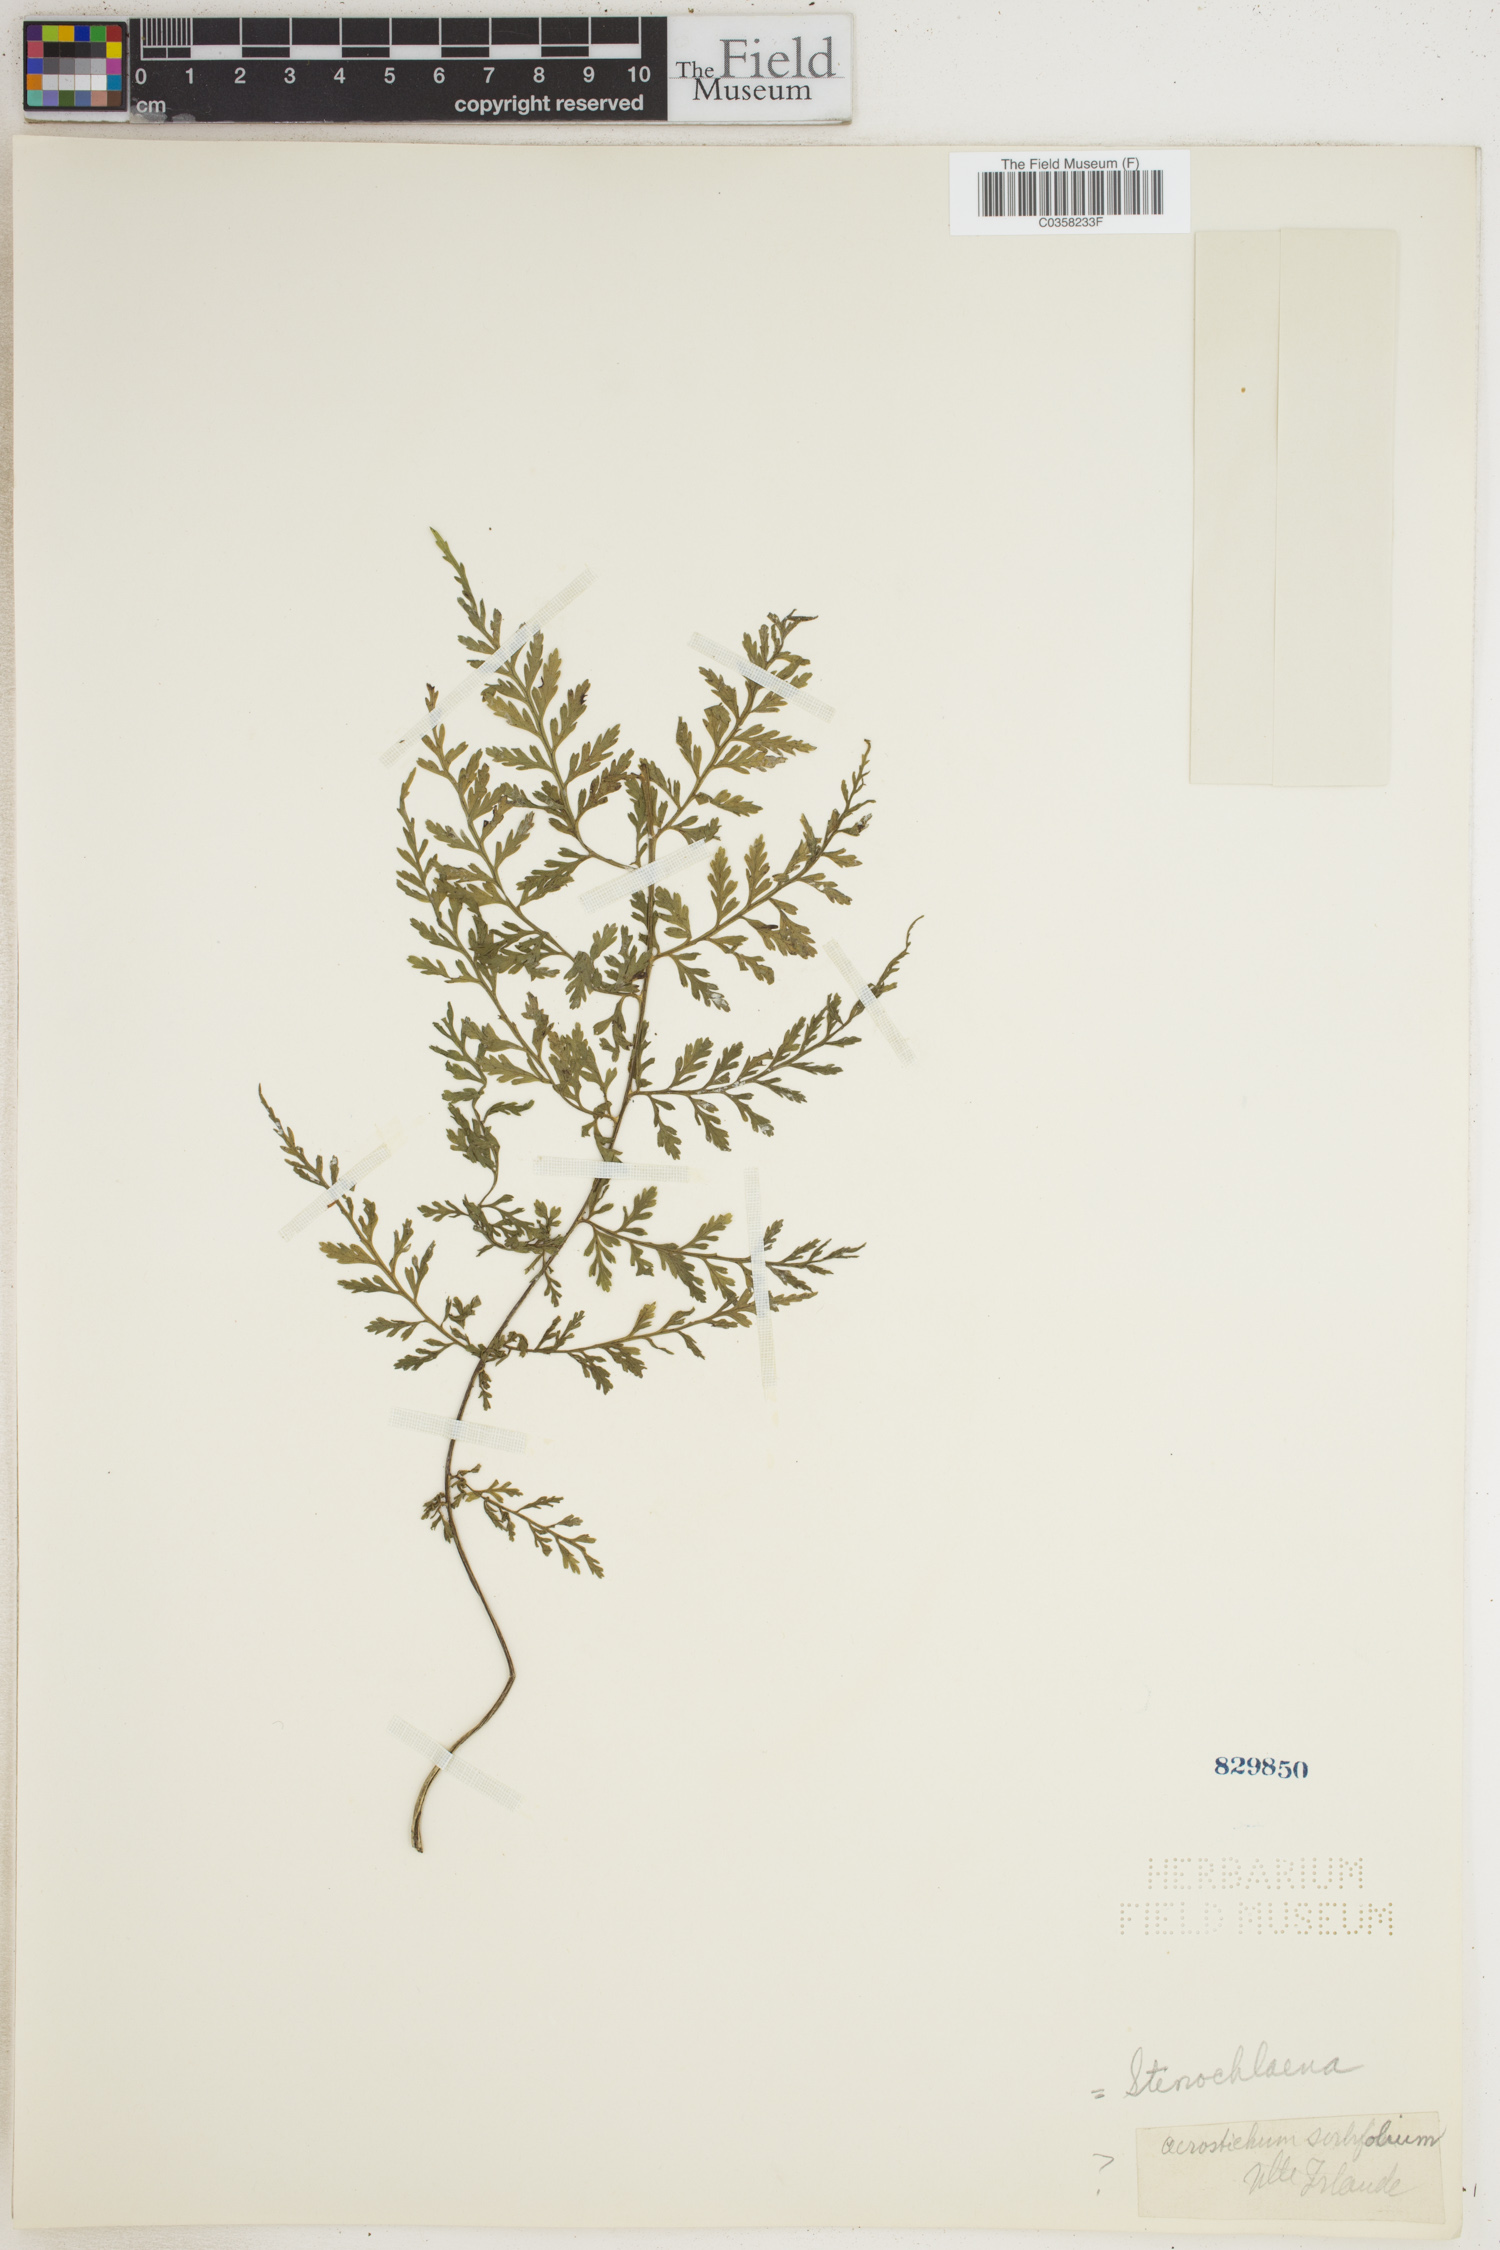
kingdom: Plantae
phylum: Tracheophyta
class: Polypodiopsida
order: Polypodiales
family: Blechnaceae
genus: Stenochlaena
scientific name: Stenochlaena
